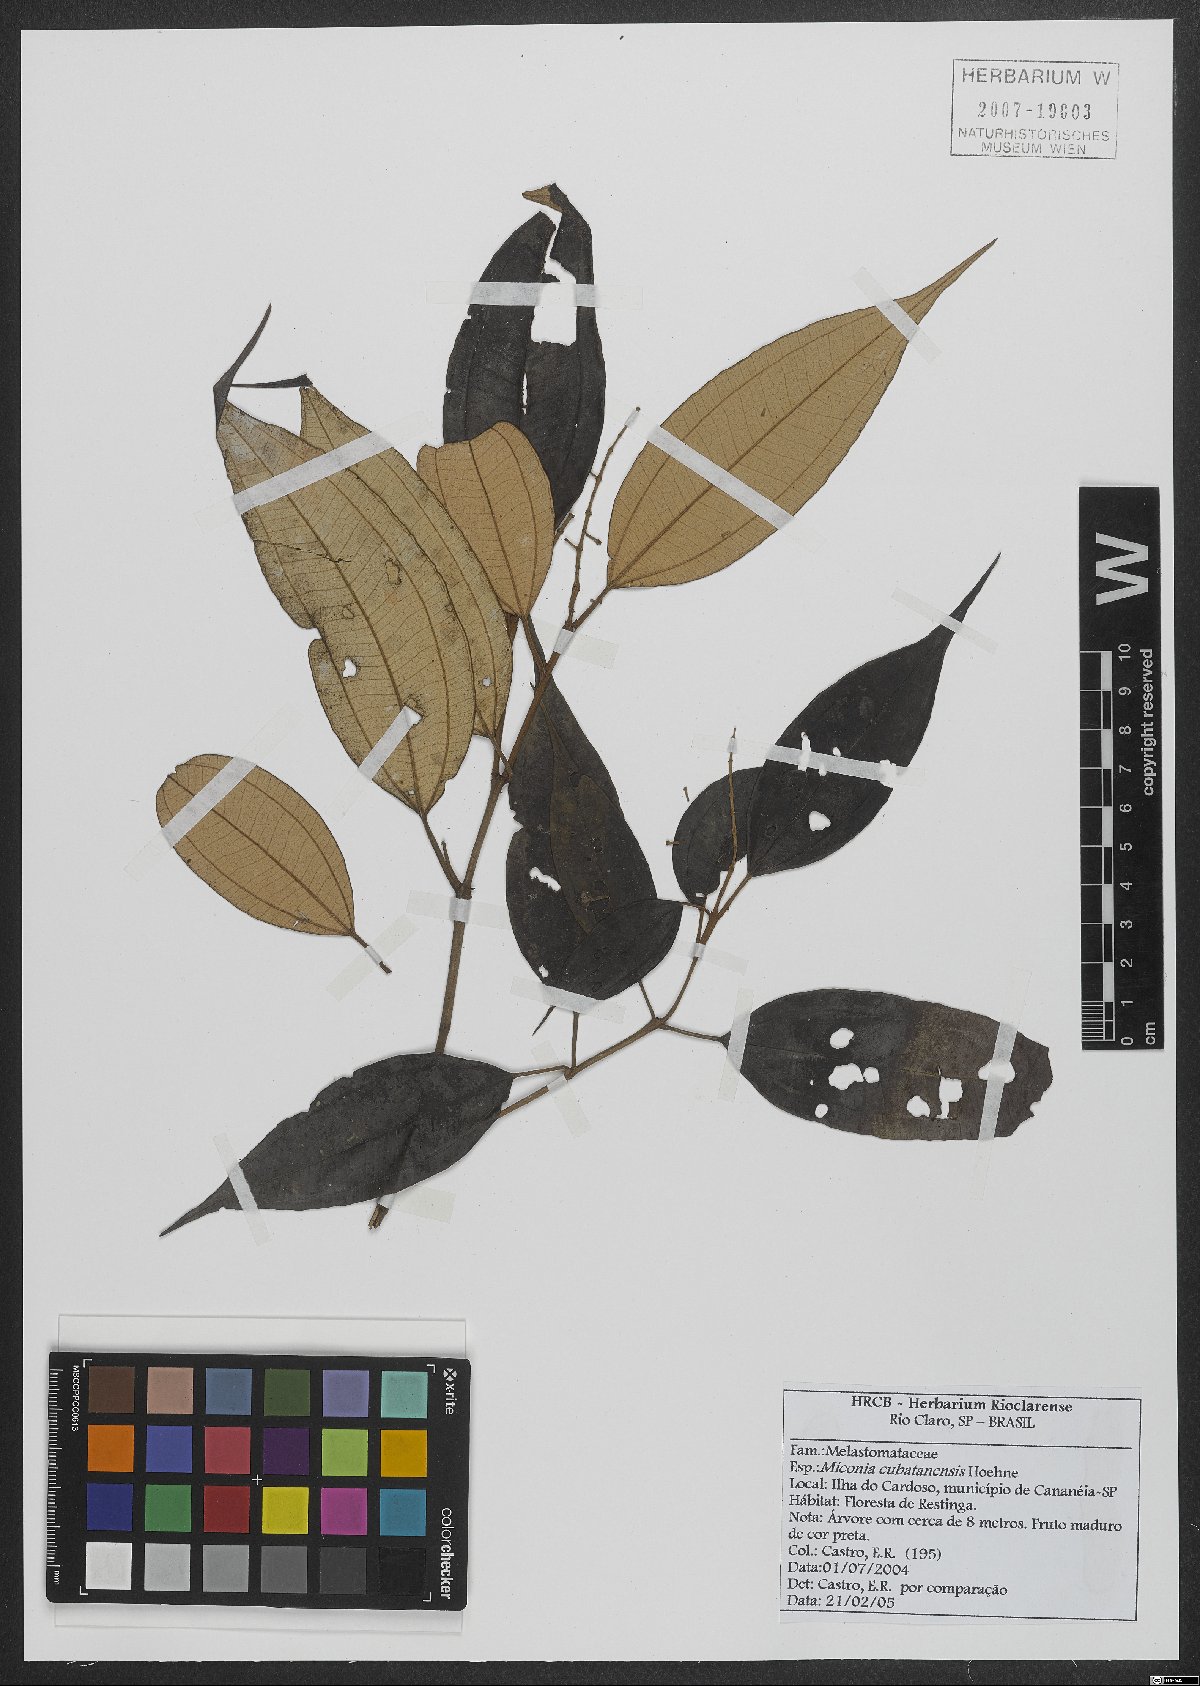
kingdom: Plantae
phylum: Tracheophyta
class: Magnoliopsida
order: Myrtales
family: Melastomataceae
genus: Miconia
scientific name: Miconia cubatanensis
